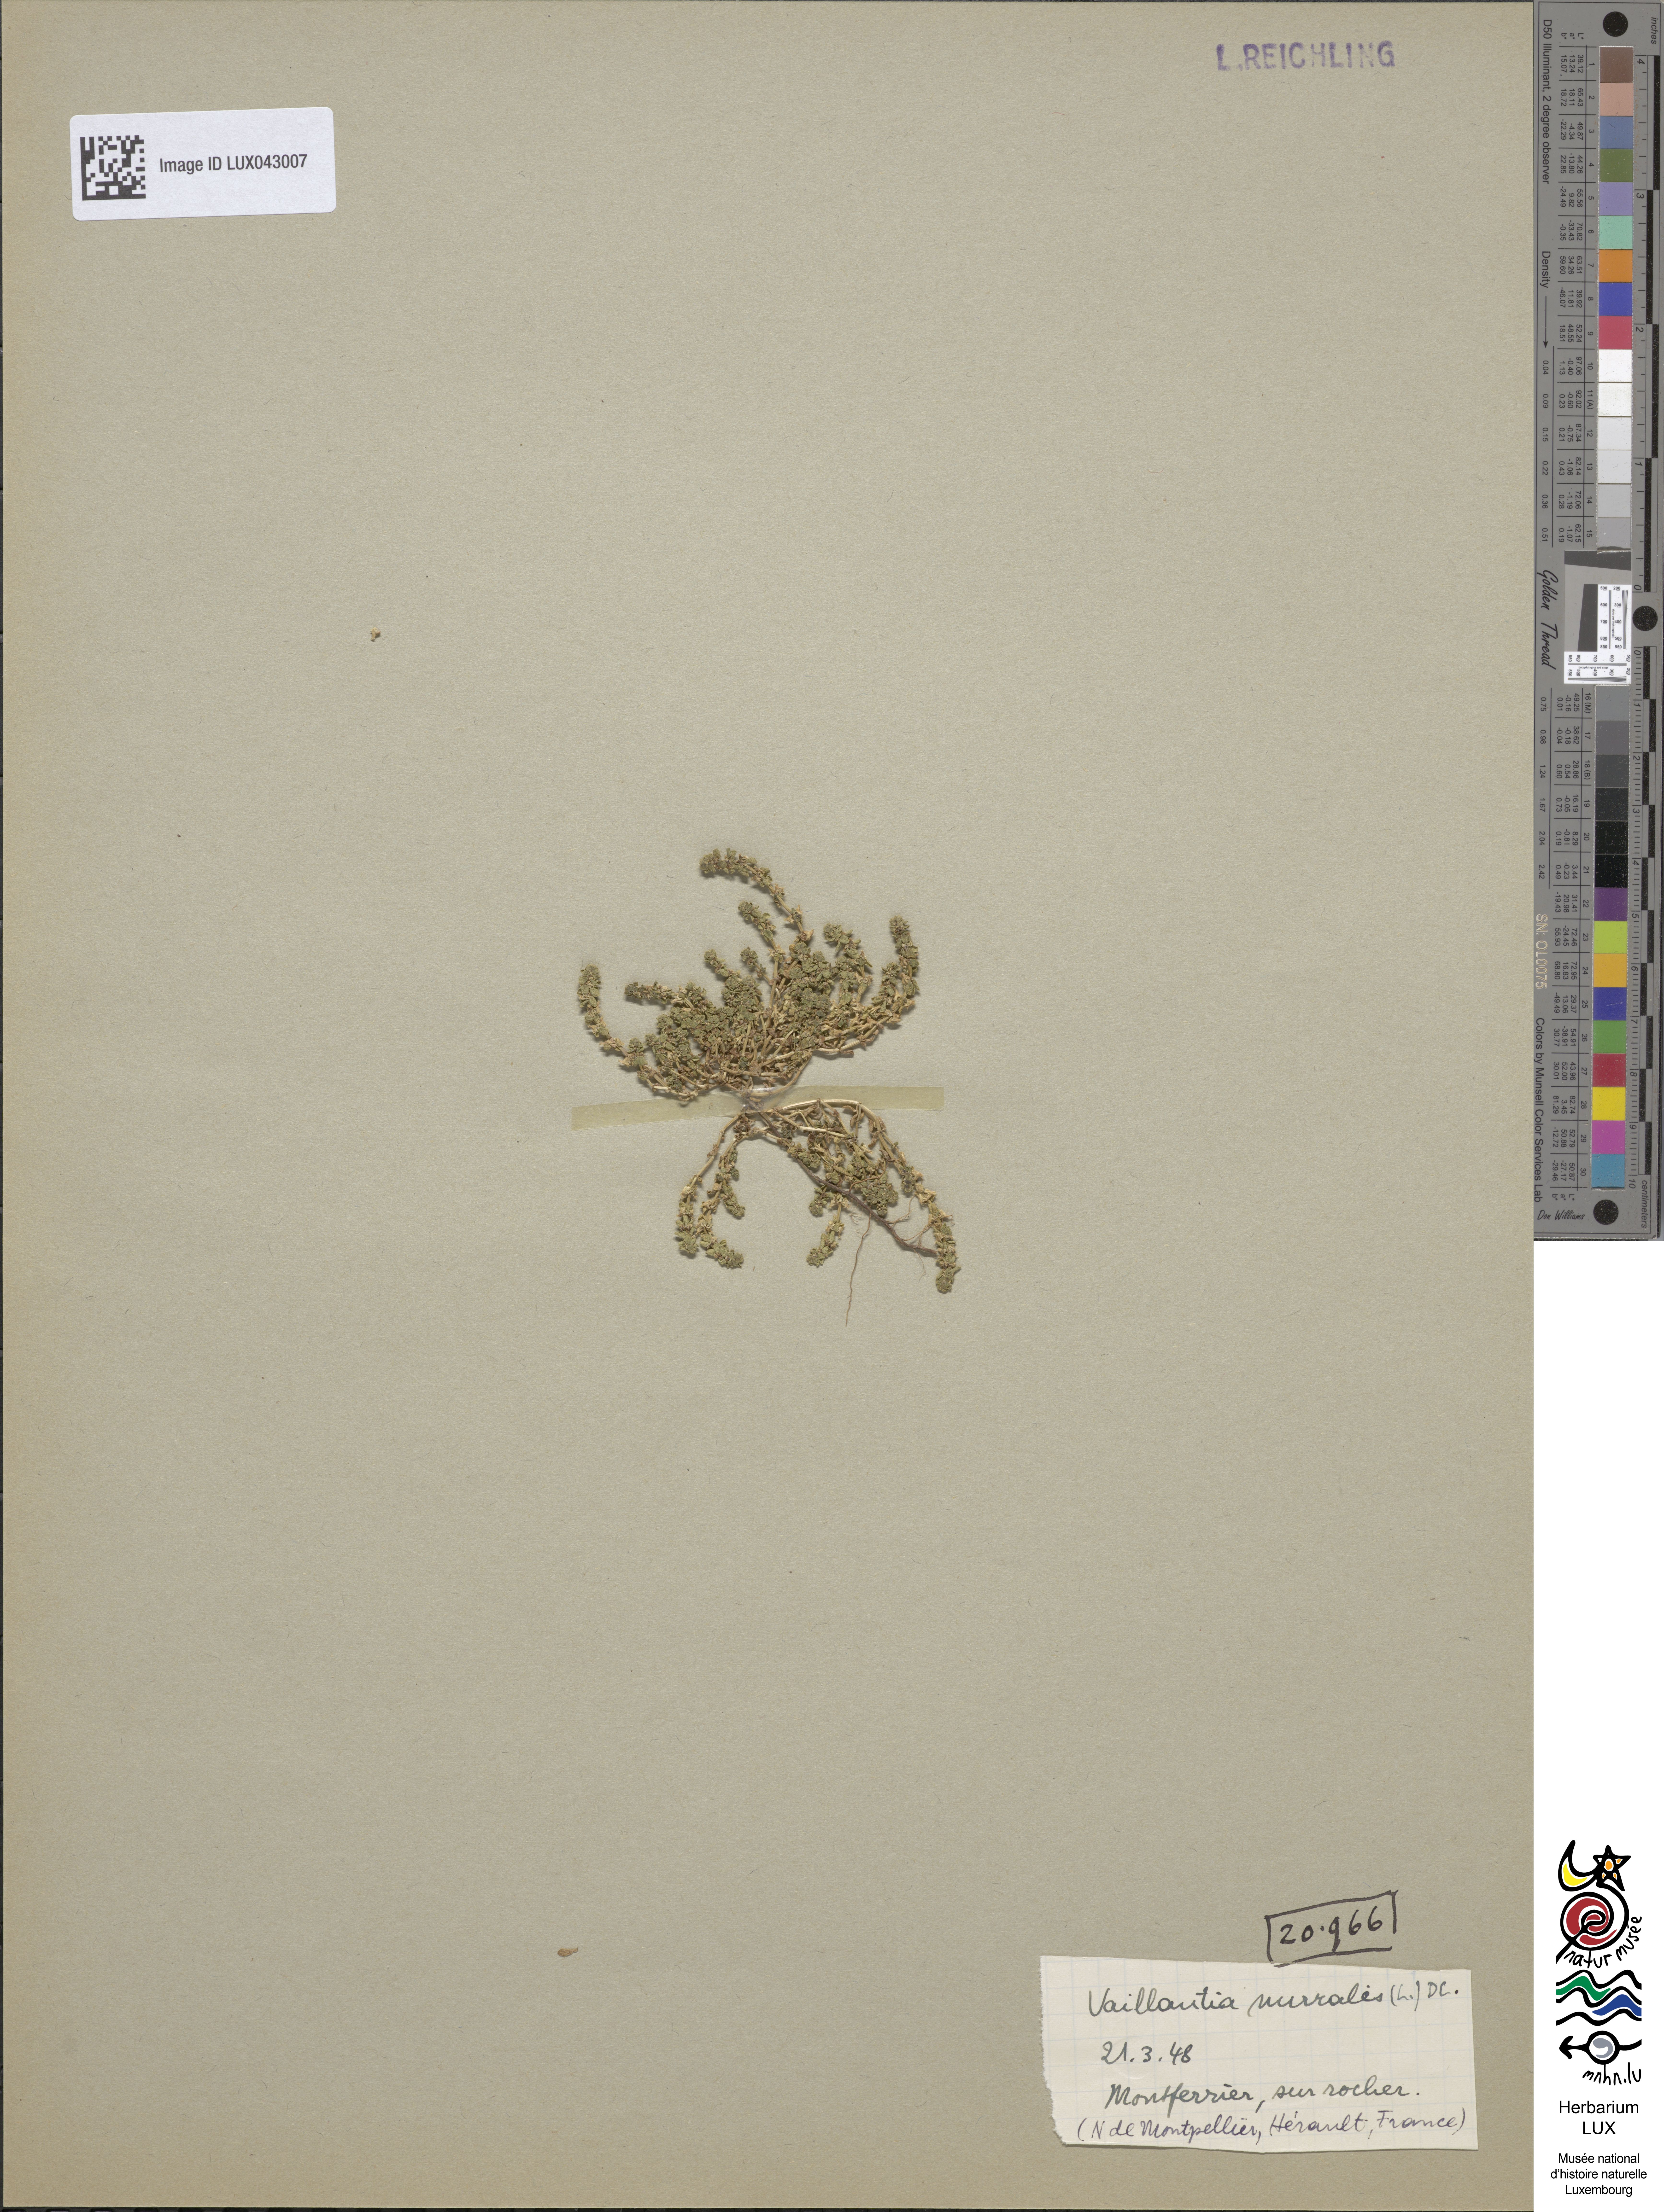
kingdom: Plantae
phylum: Tracheophyta
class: Magnoliopsida
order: Gentianales
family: Rubiaceae
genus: Valantia
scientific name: Valantia muralis
